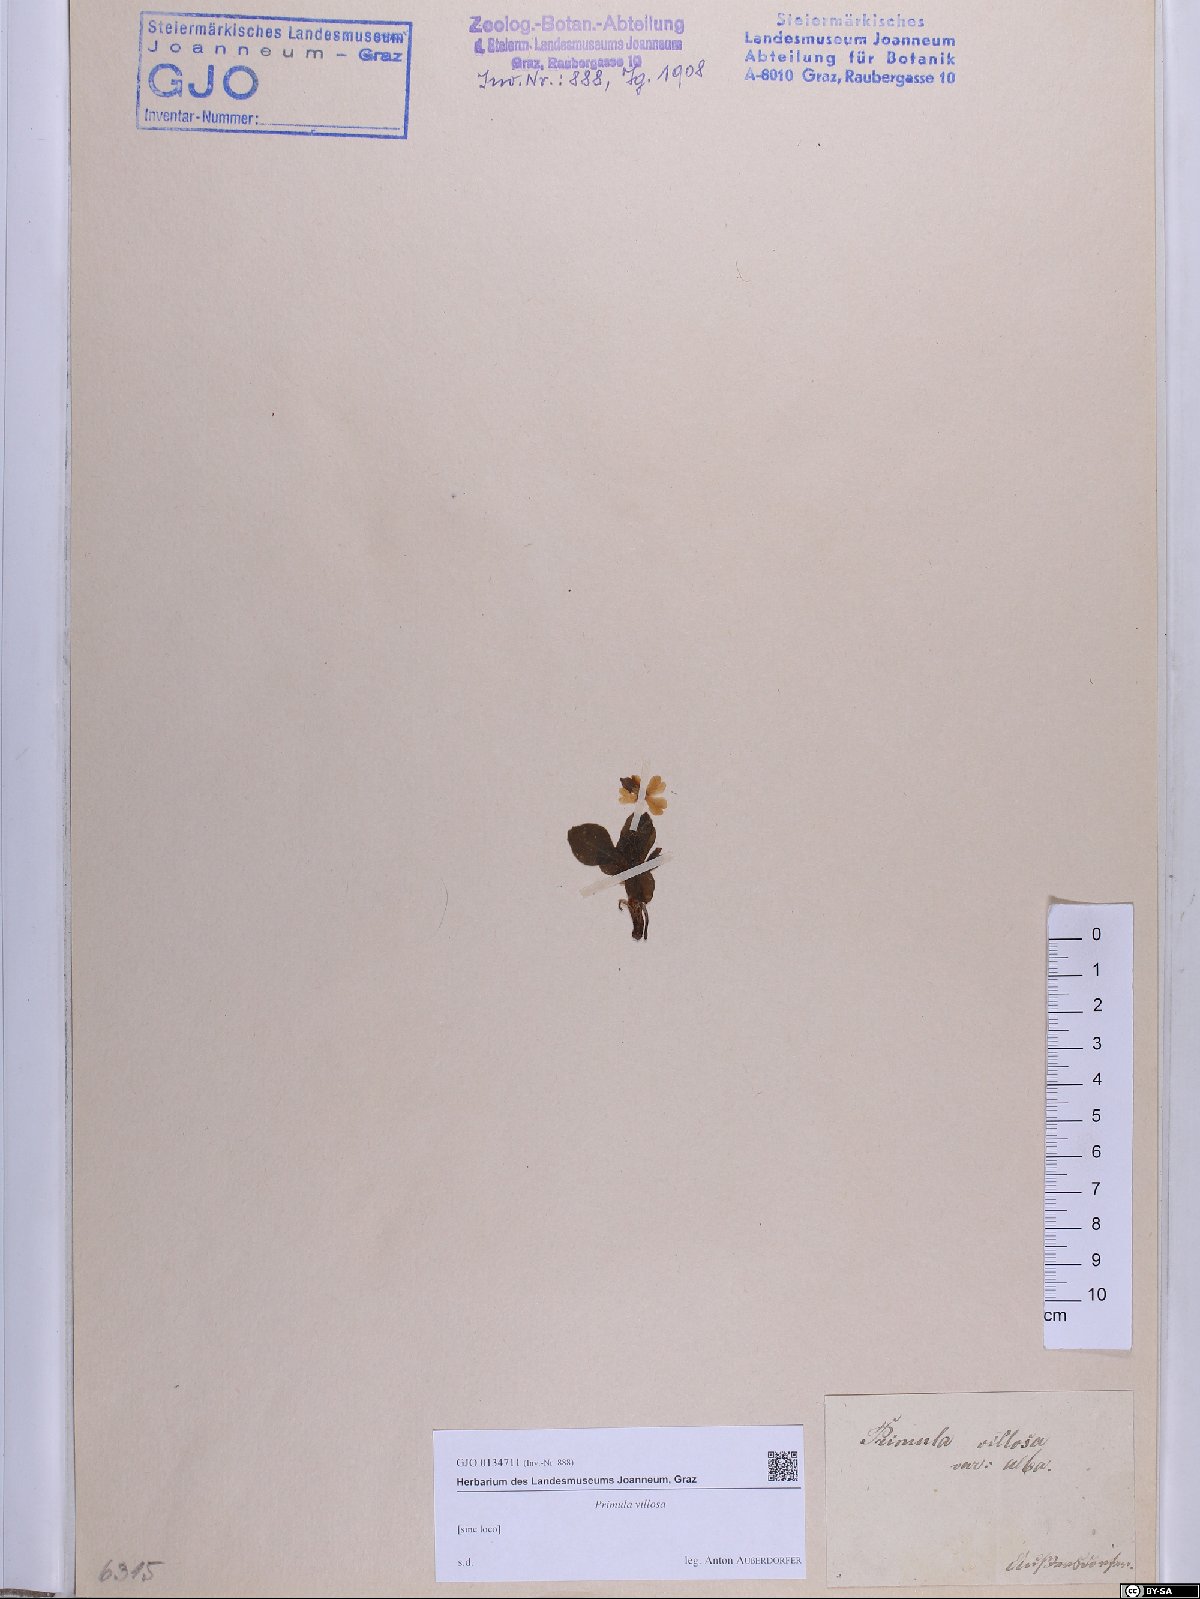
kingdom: Plantae
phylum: Tracheophyta
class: Magnoliopsida
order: Ericales
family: Primulaceae
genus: Primula
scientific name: Primula villosa
